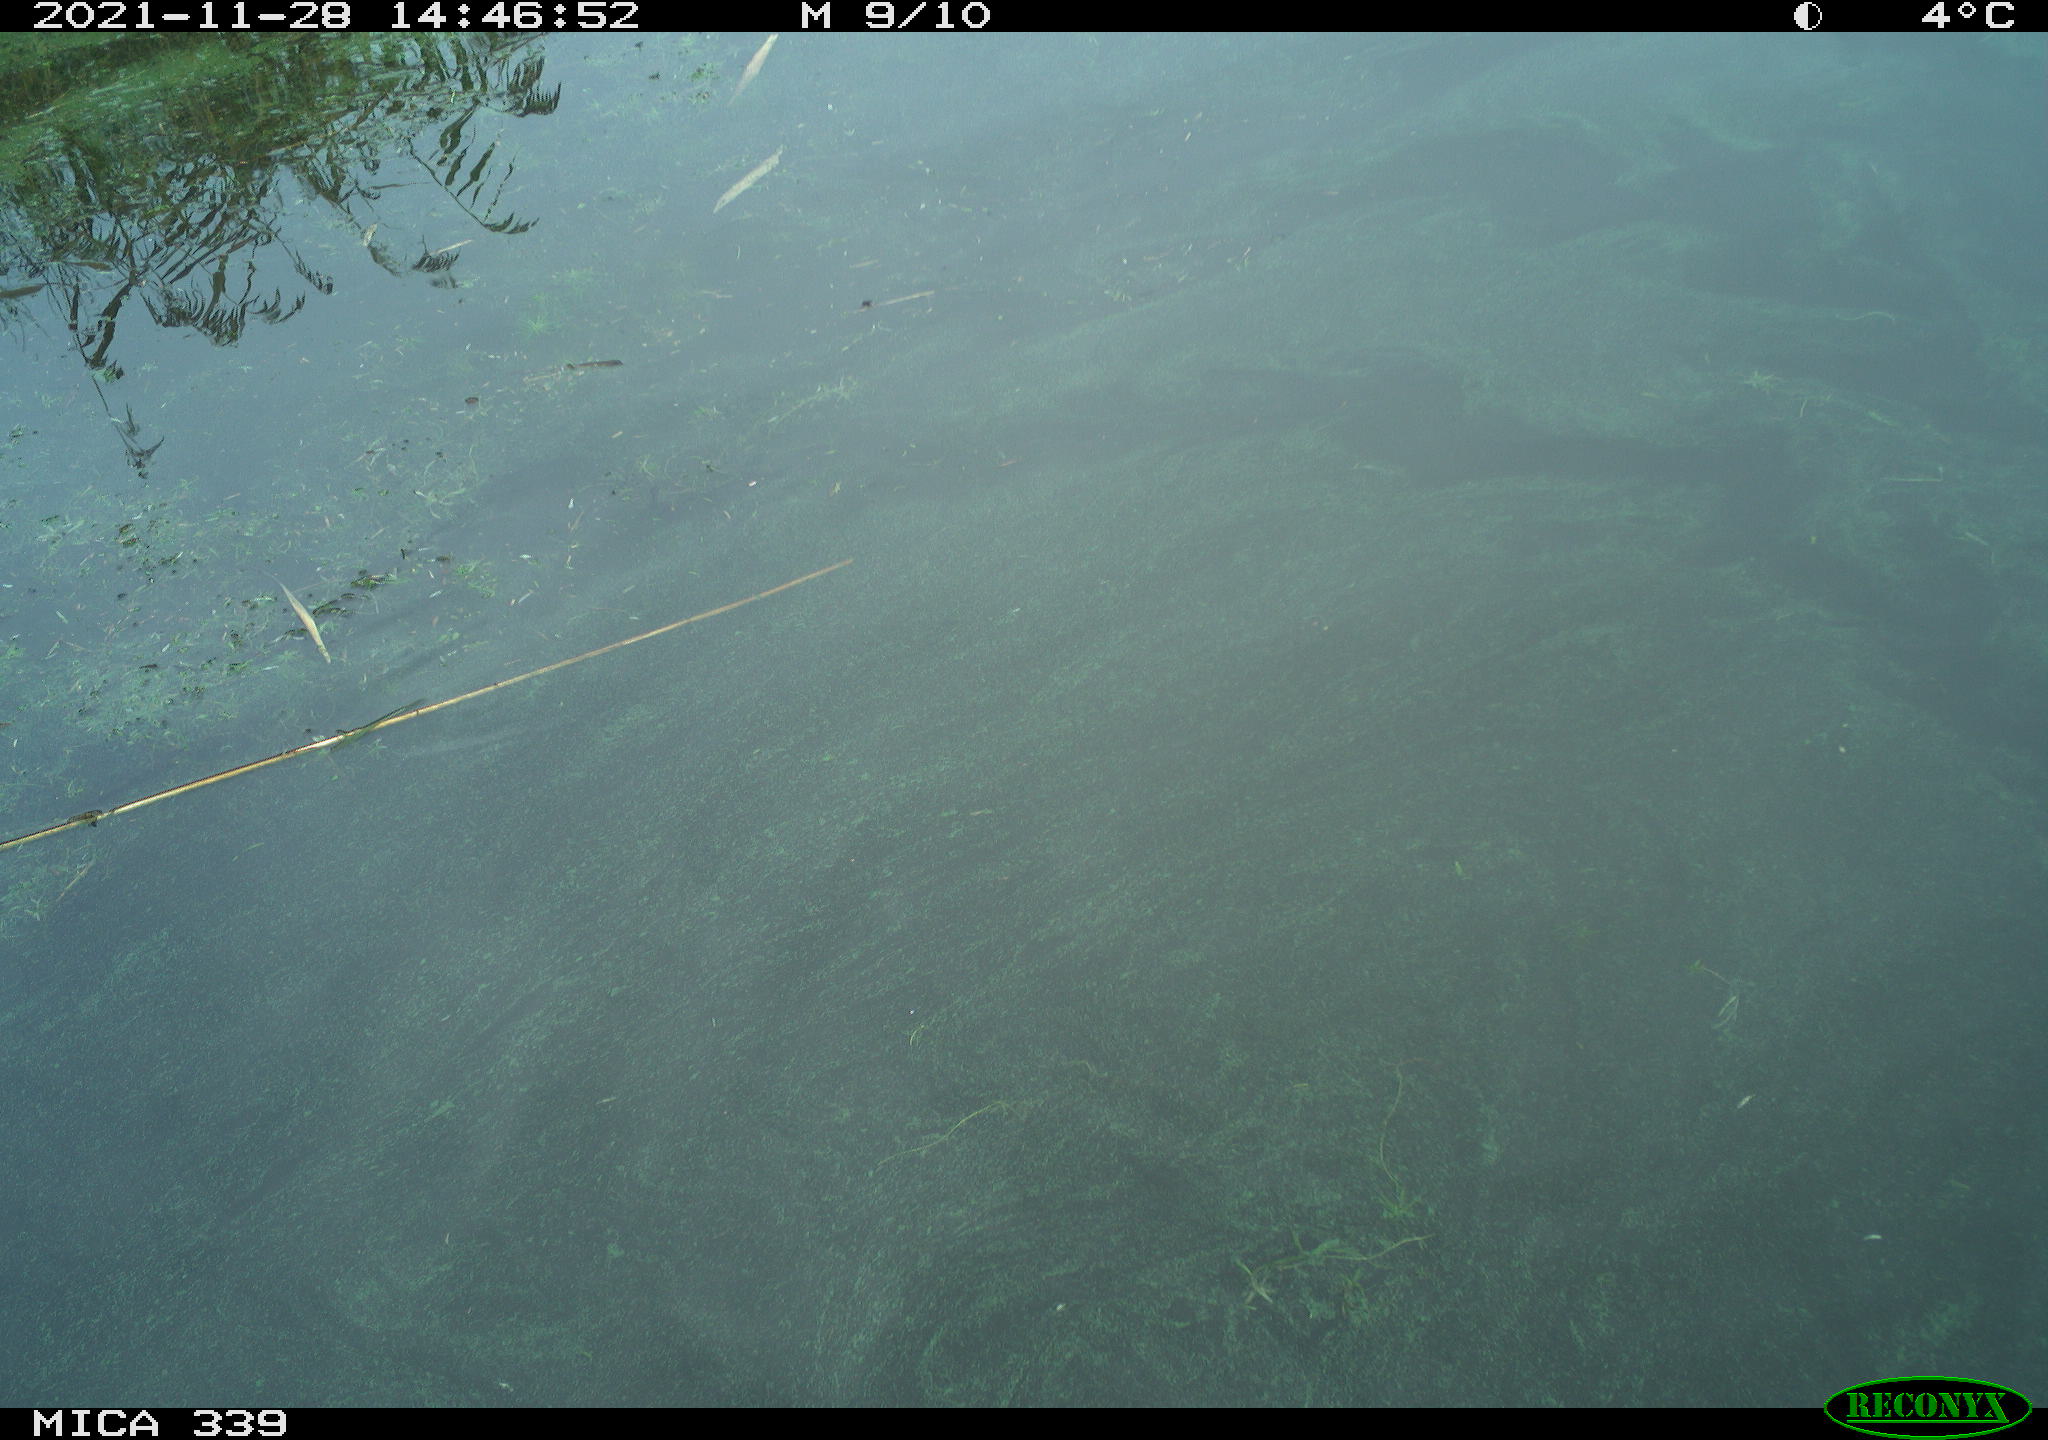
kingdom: Animalia
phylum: Chordata
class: Aves
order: Anseriformes
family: Anatidae
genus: Anas
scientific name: Anas platyrhynchos
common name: Mallard
